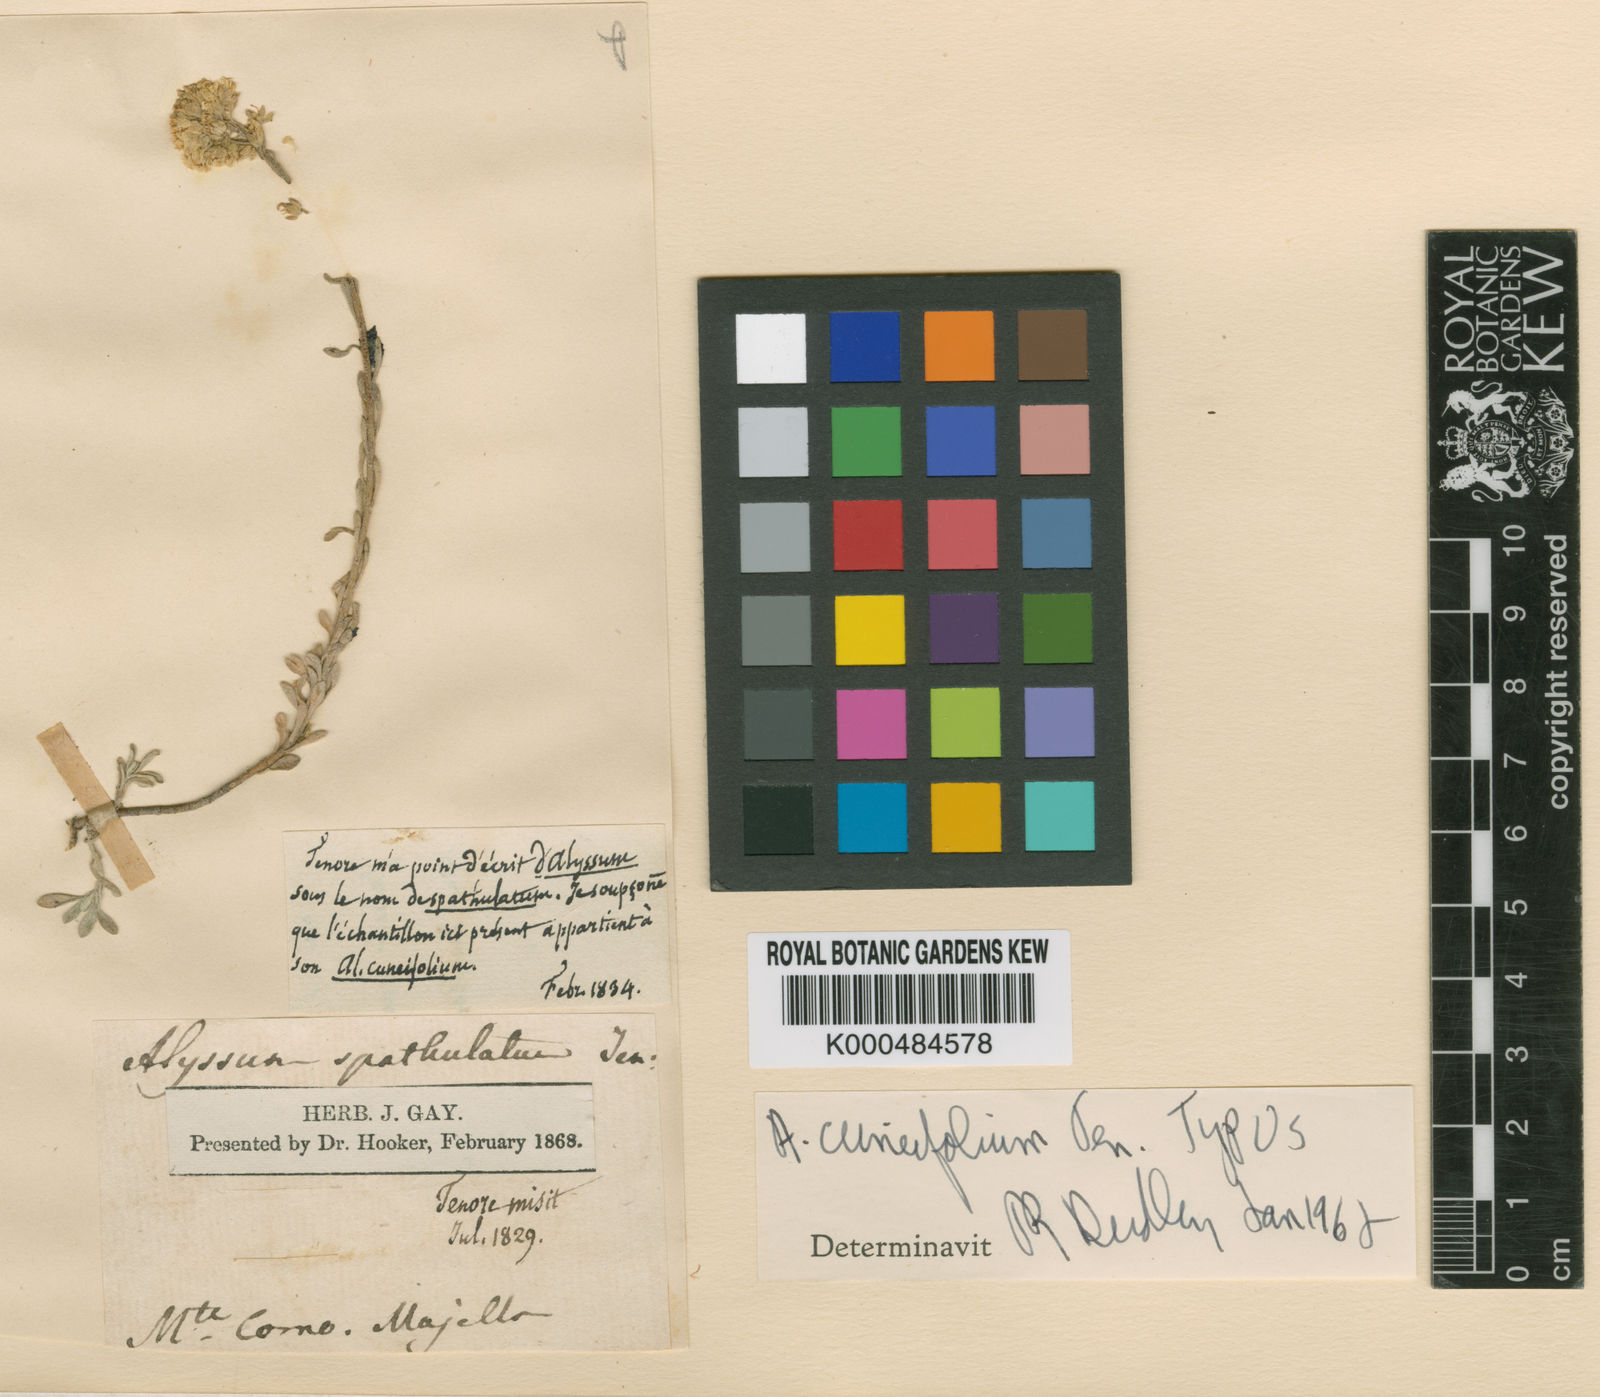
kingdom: Plantae
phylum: Tracheophyta
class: Magnoliopsida
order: Brassicales
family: Brassicaceae
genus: Alyssum
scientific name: Alyssum cuneifolium
